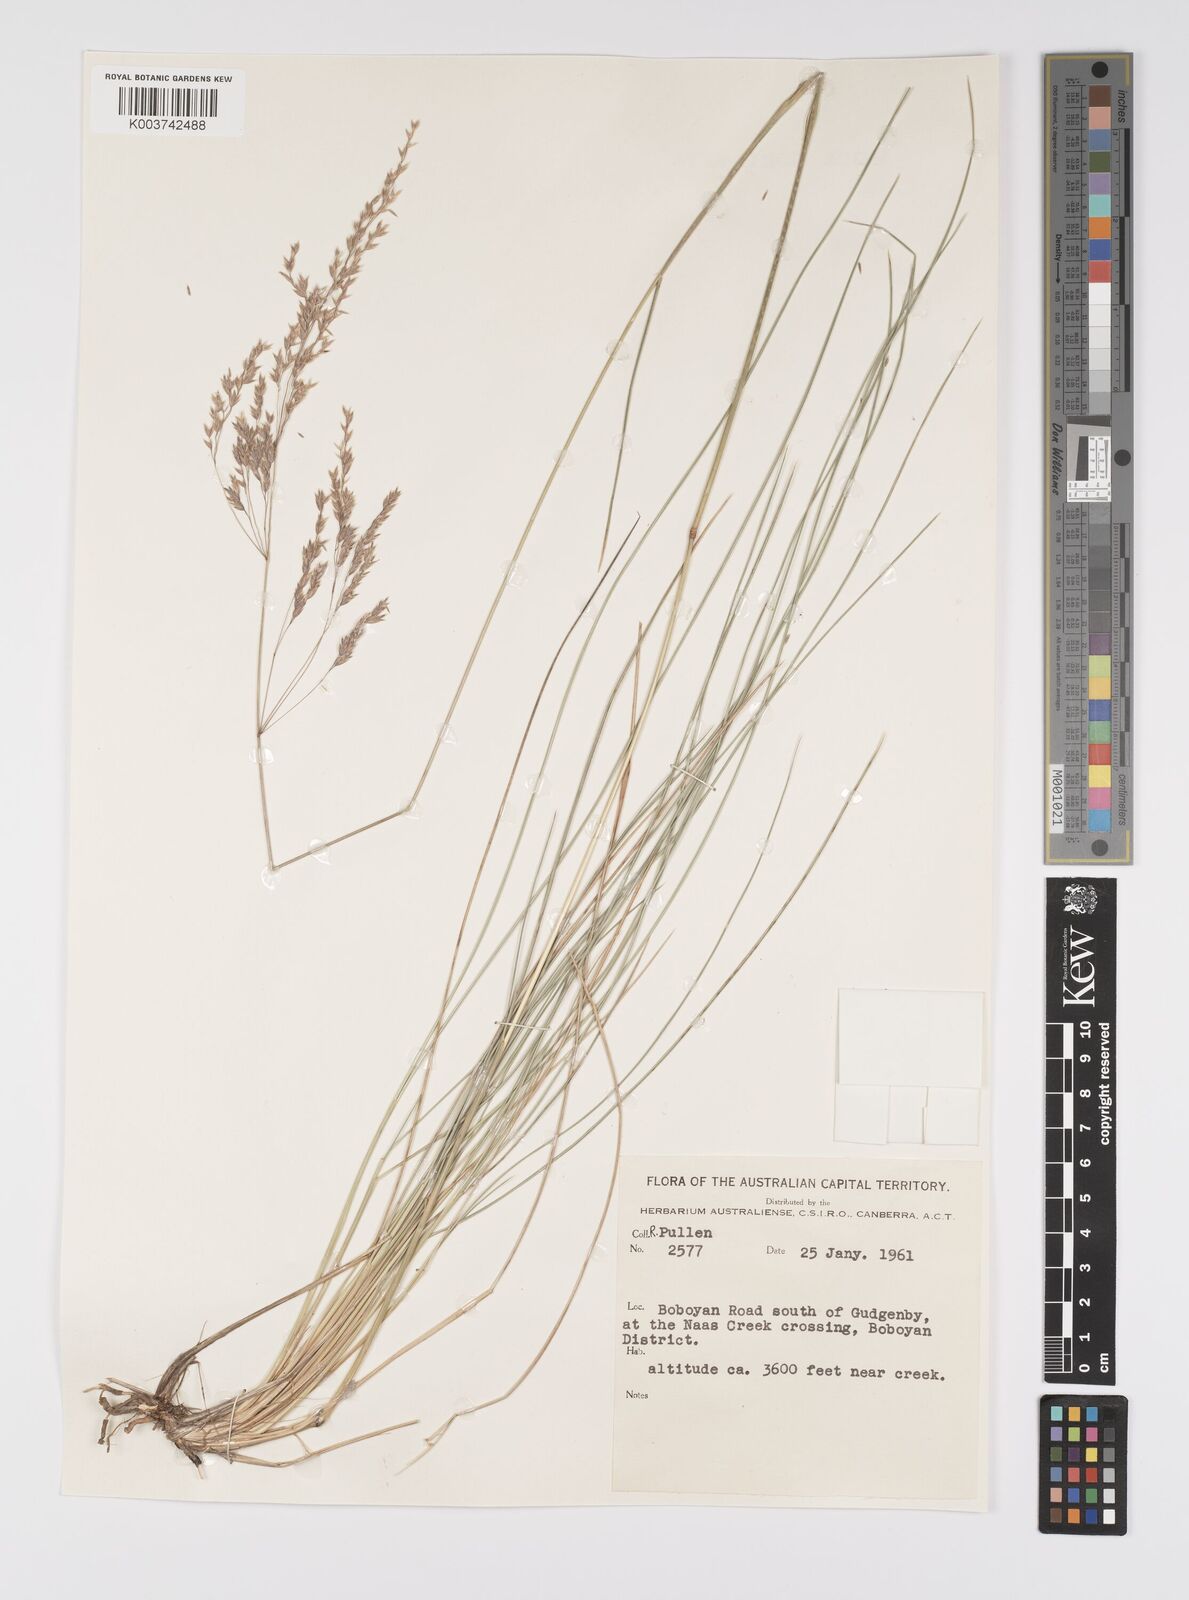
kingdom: Plantae
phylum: Tracheophyta
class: Liliopsida
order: Poales
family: Poaceae
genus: Poa
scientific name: Poa
